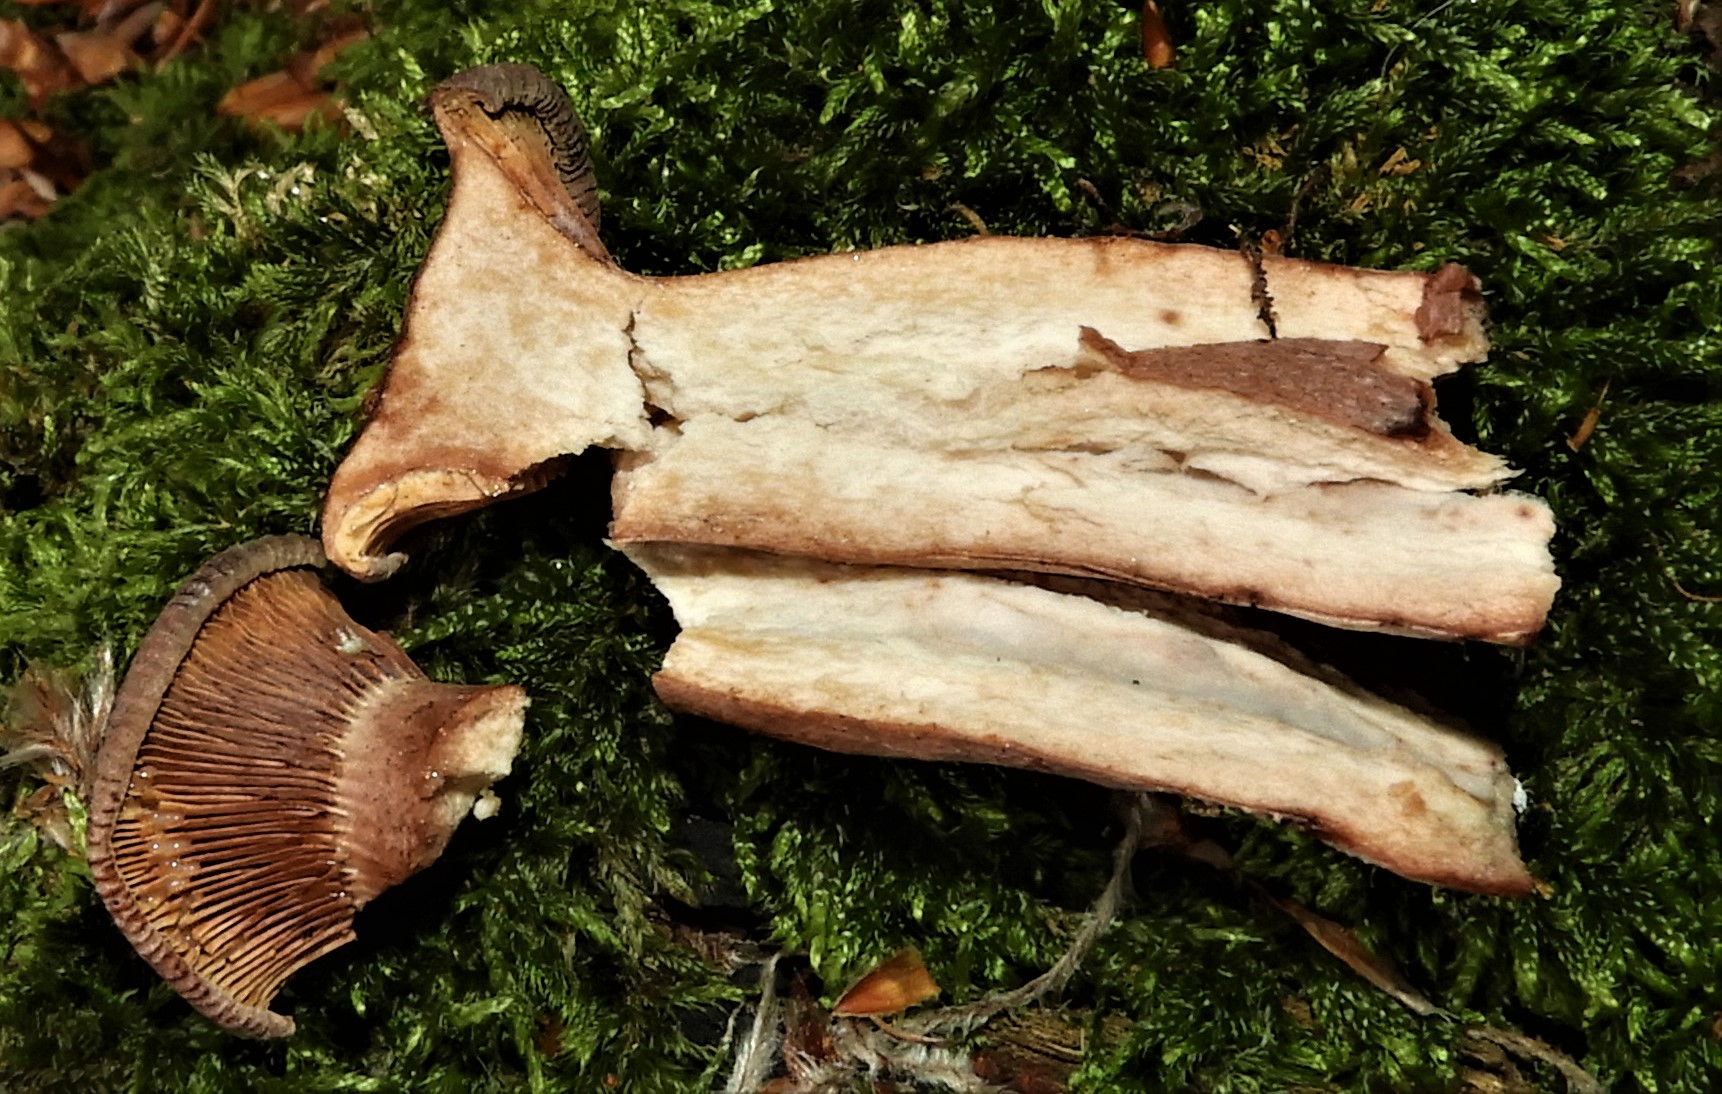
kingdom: Fungi
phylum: Basidiomycota
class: Agaricomycetes
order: Russulales
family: Russulaceae
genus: Lactarius
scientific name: Lactarius camphoratus
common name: kamfer-mælkehat
